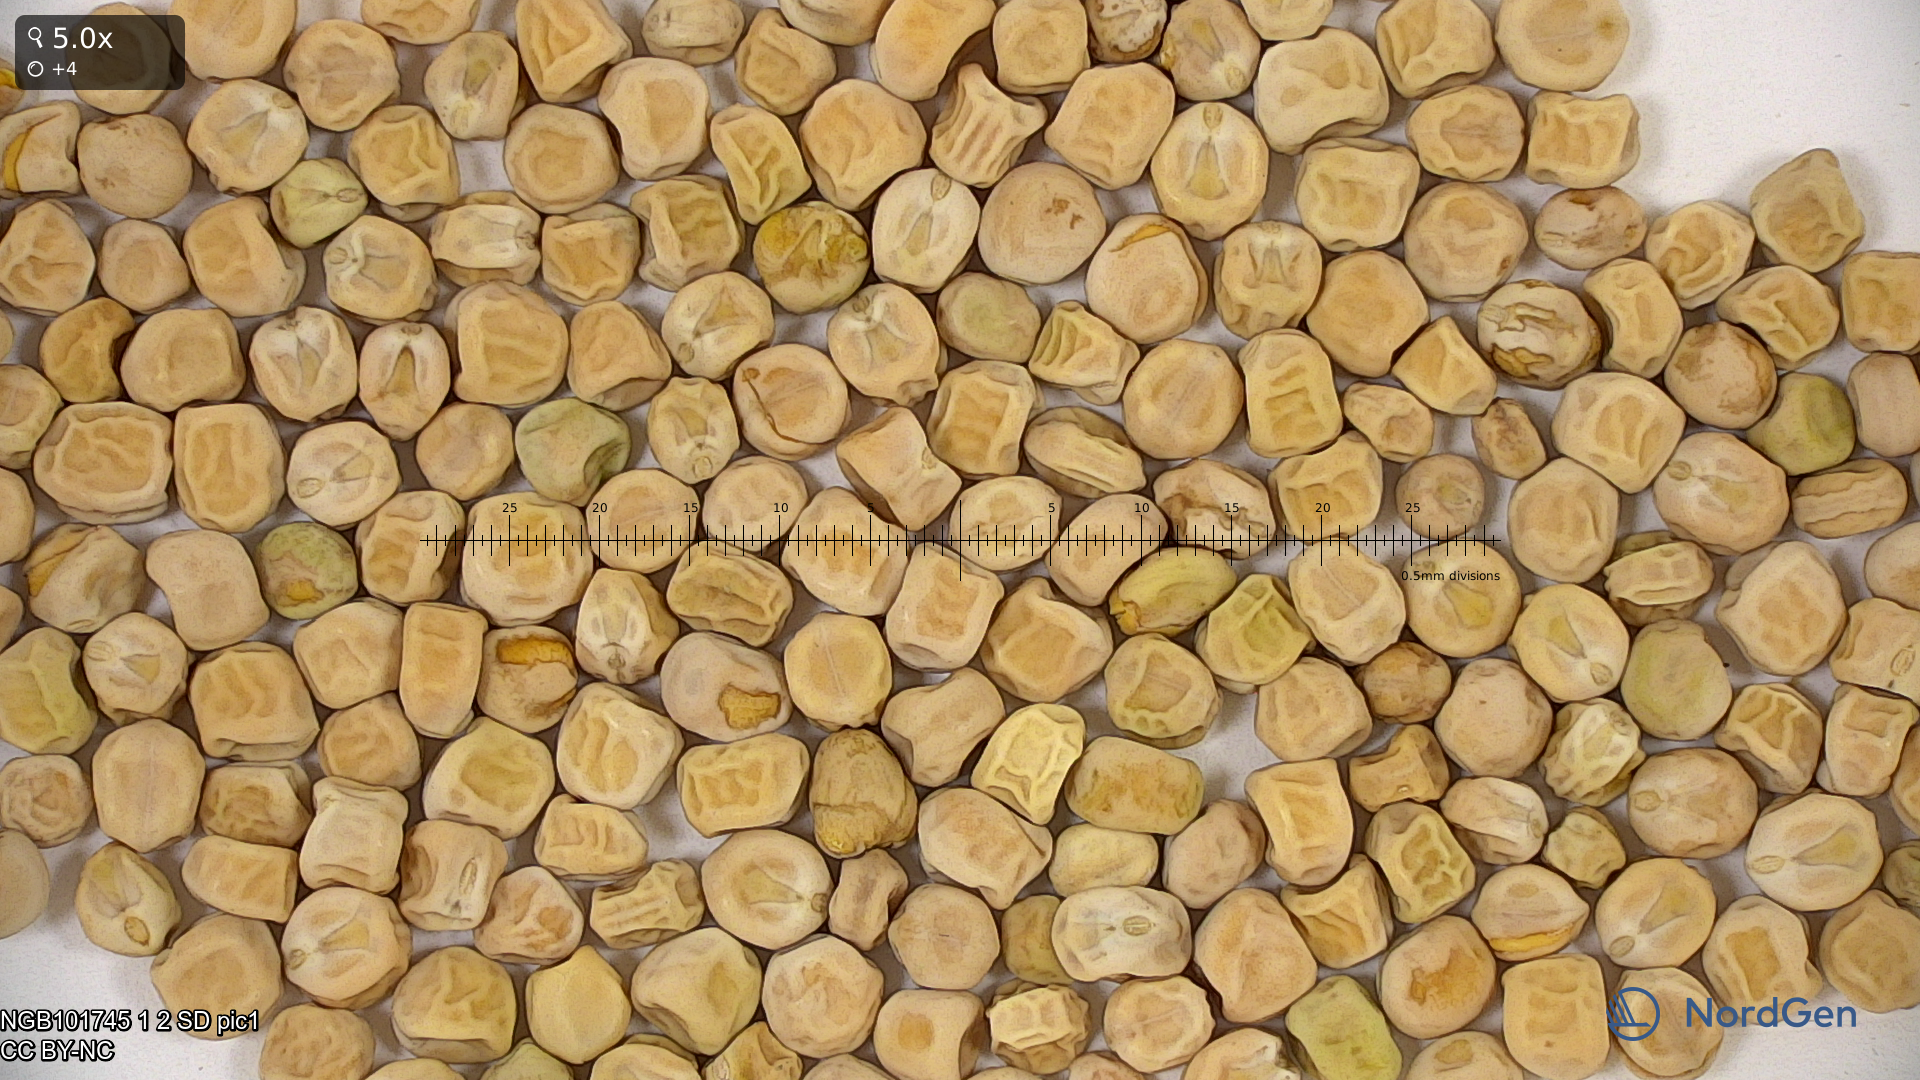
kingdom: Plantae
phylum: Tracheophyta
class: Magnoliopsida
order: Fabales
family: Fabaceae
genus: Lathyrus
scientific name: Lathyrus oleraceus
